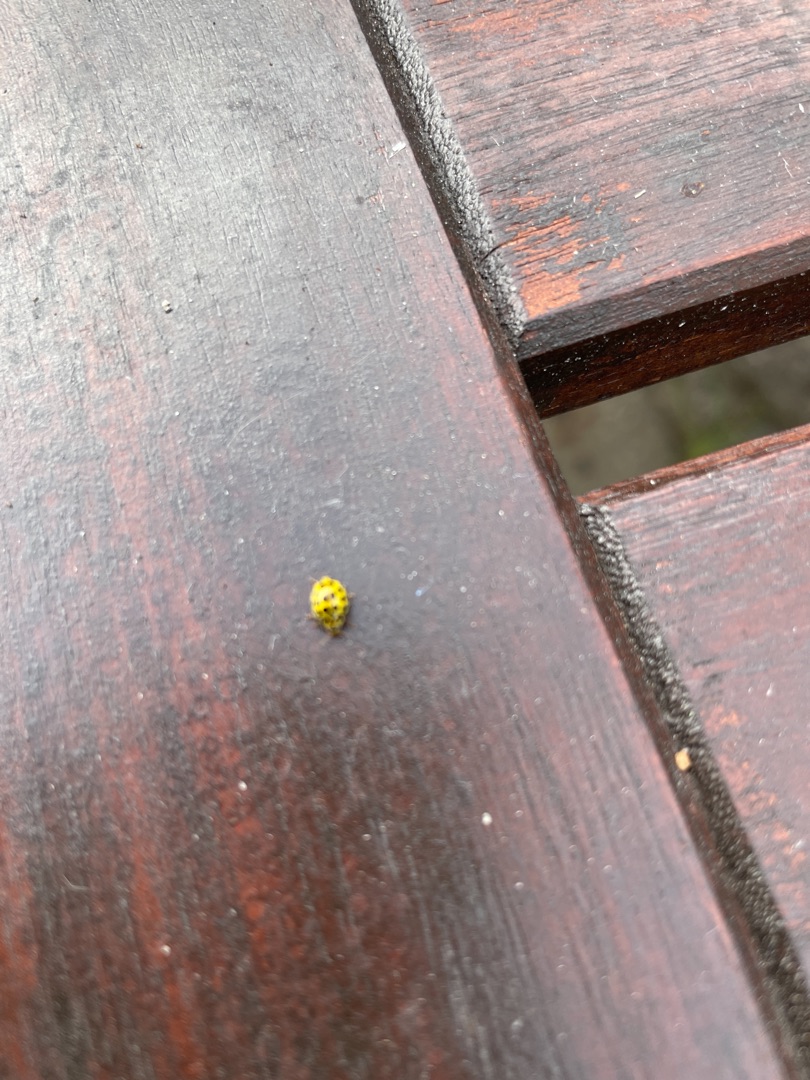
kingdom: Animalia
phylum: Arthropoda
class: Insecta
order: Coleoptera
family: Coccinellidae
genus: Psyllobora
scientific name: Psyllobora vigintiduopunctata
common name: Toogtyveplettet mariehøne
